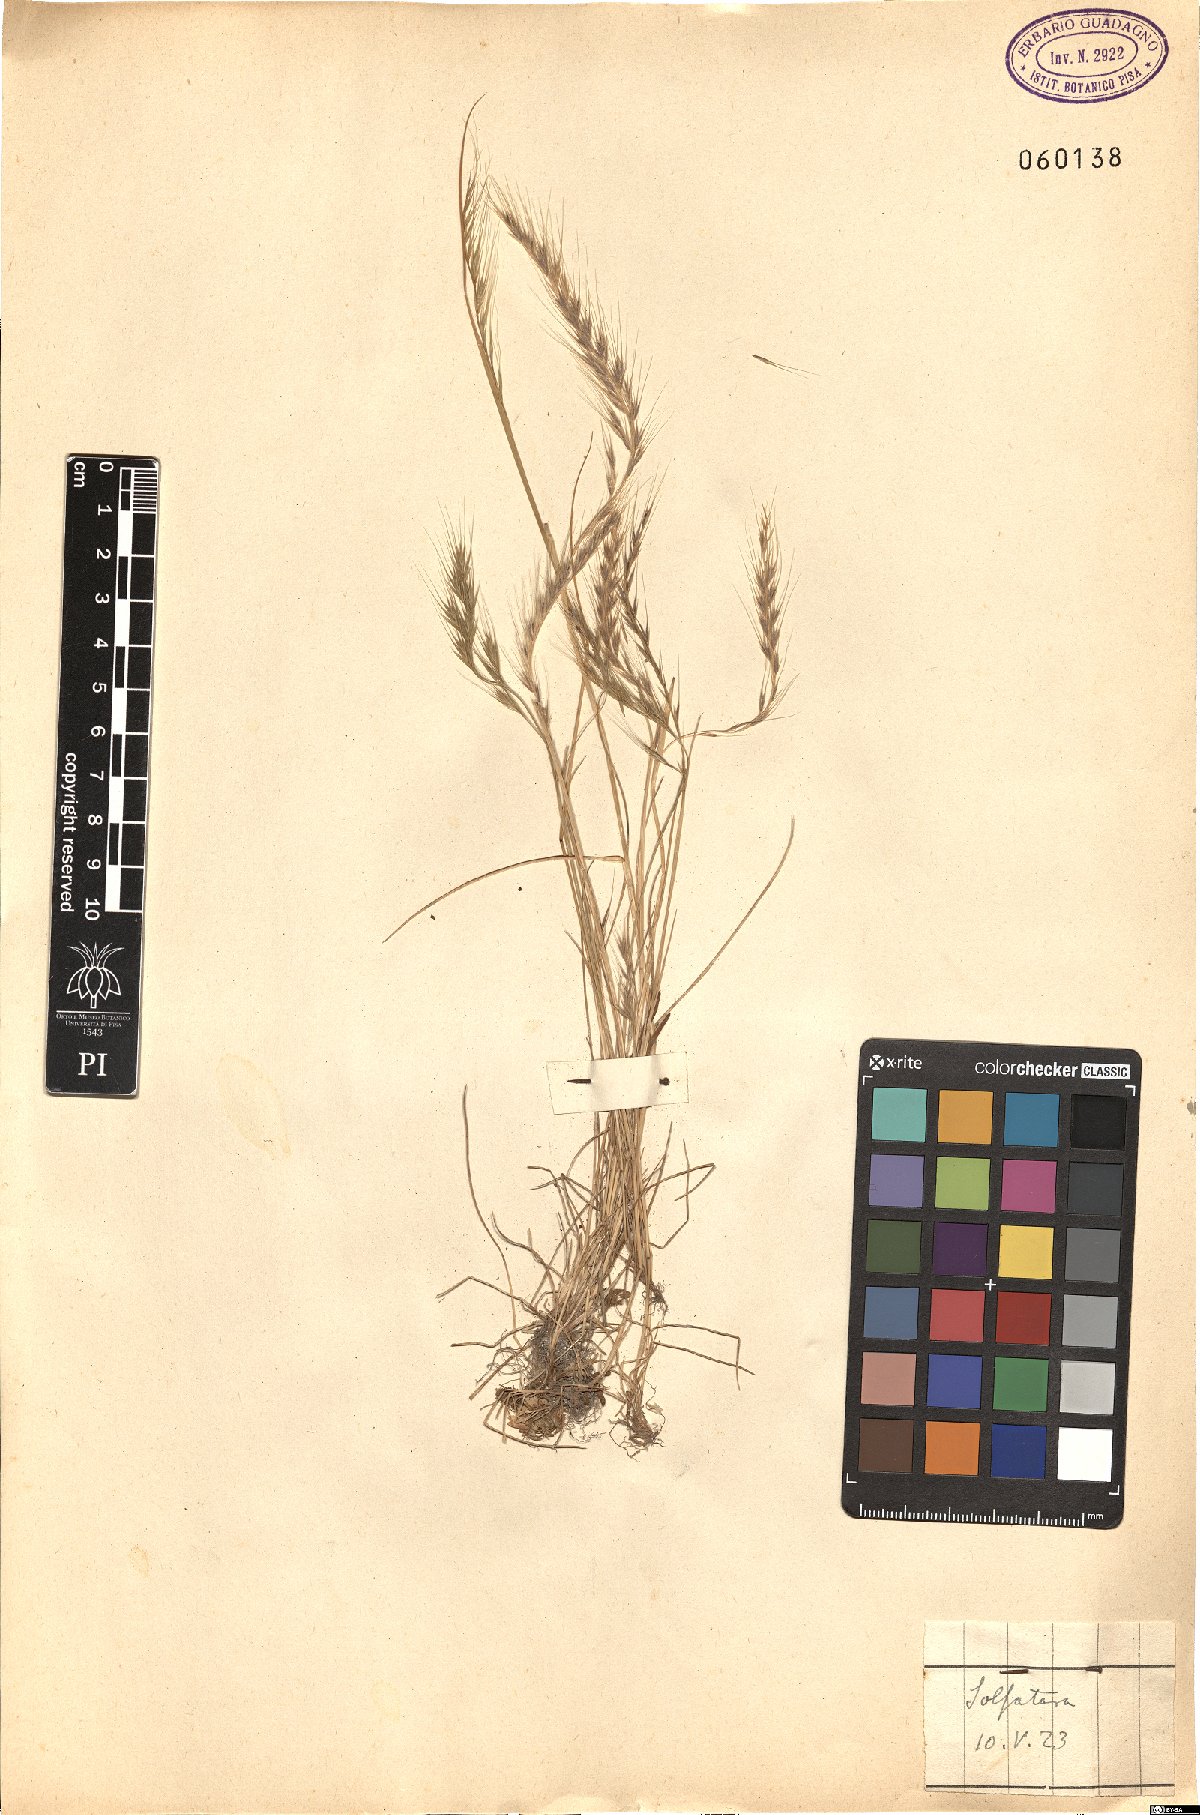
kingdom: Plantae
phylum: Tracheophyta
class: Liliopsida
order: Poales
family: Poaceae
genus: Festuca
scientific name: Festuca
